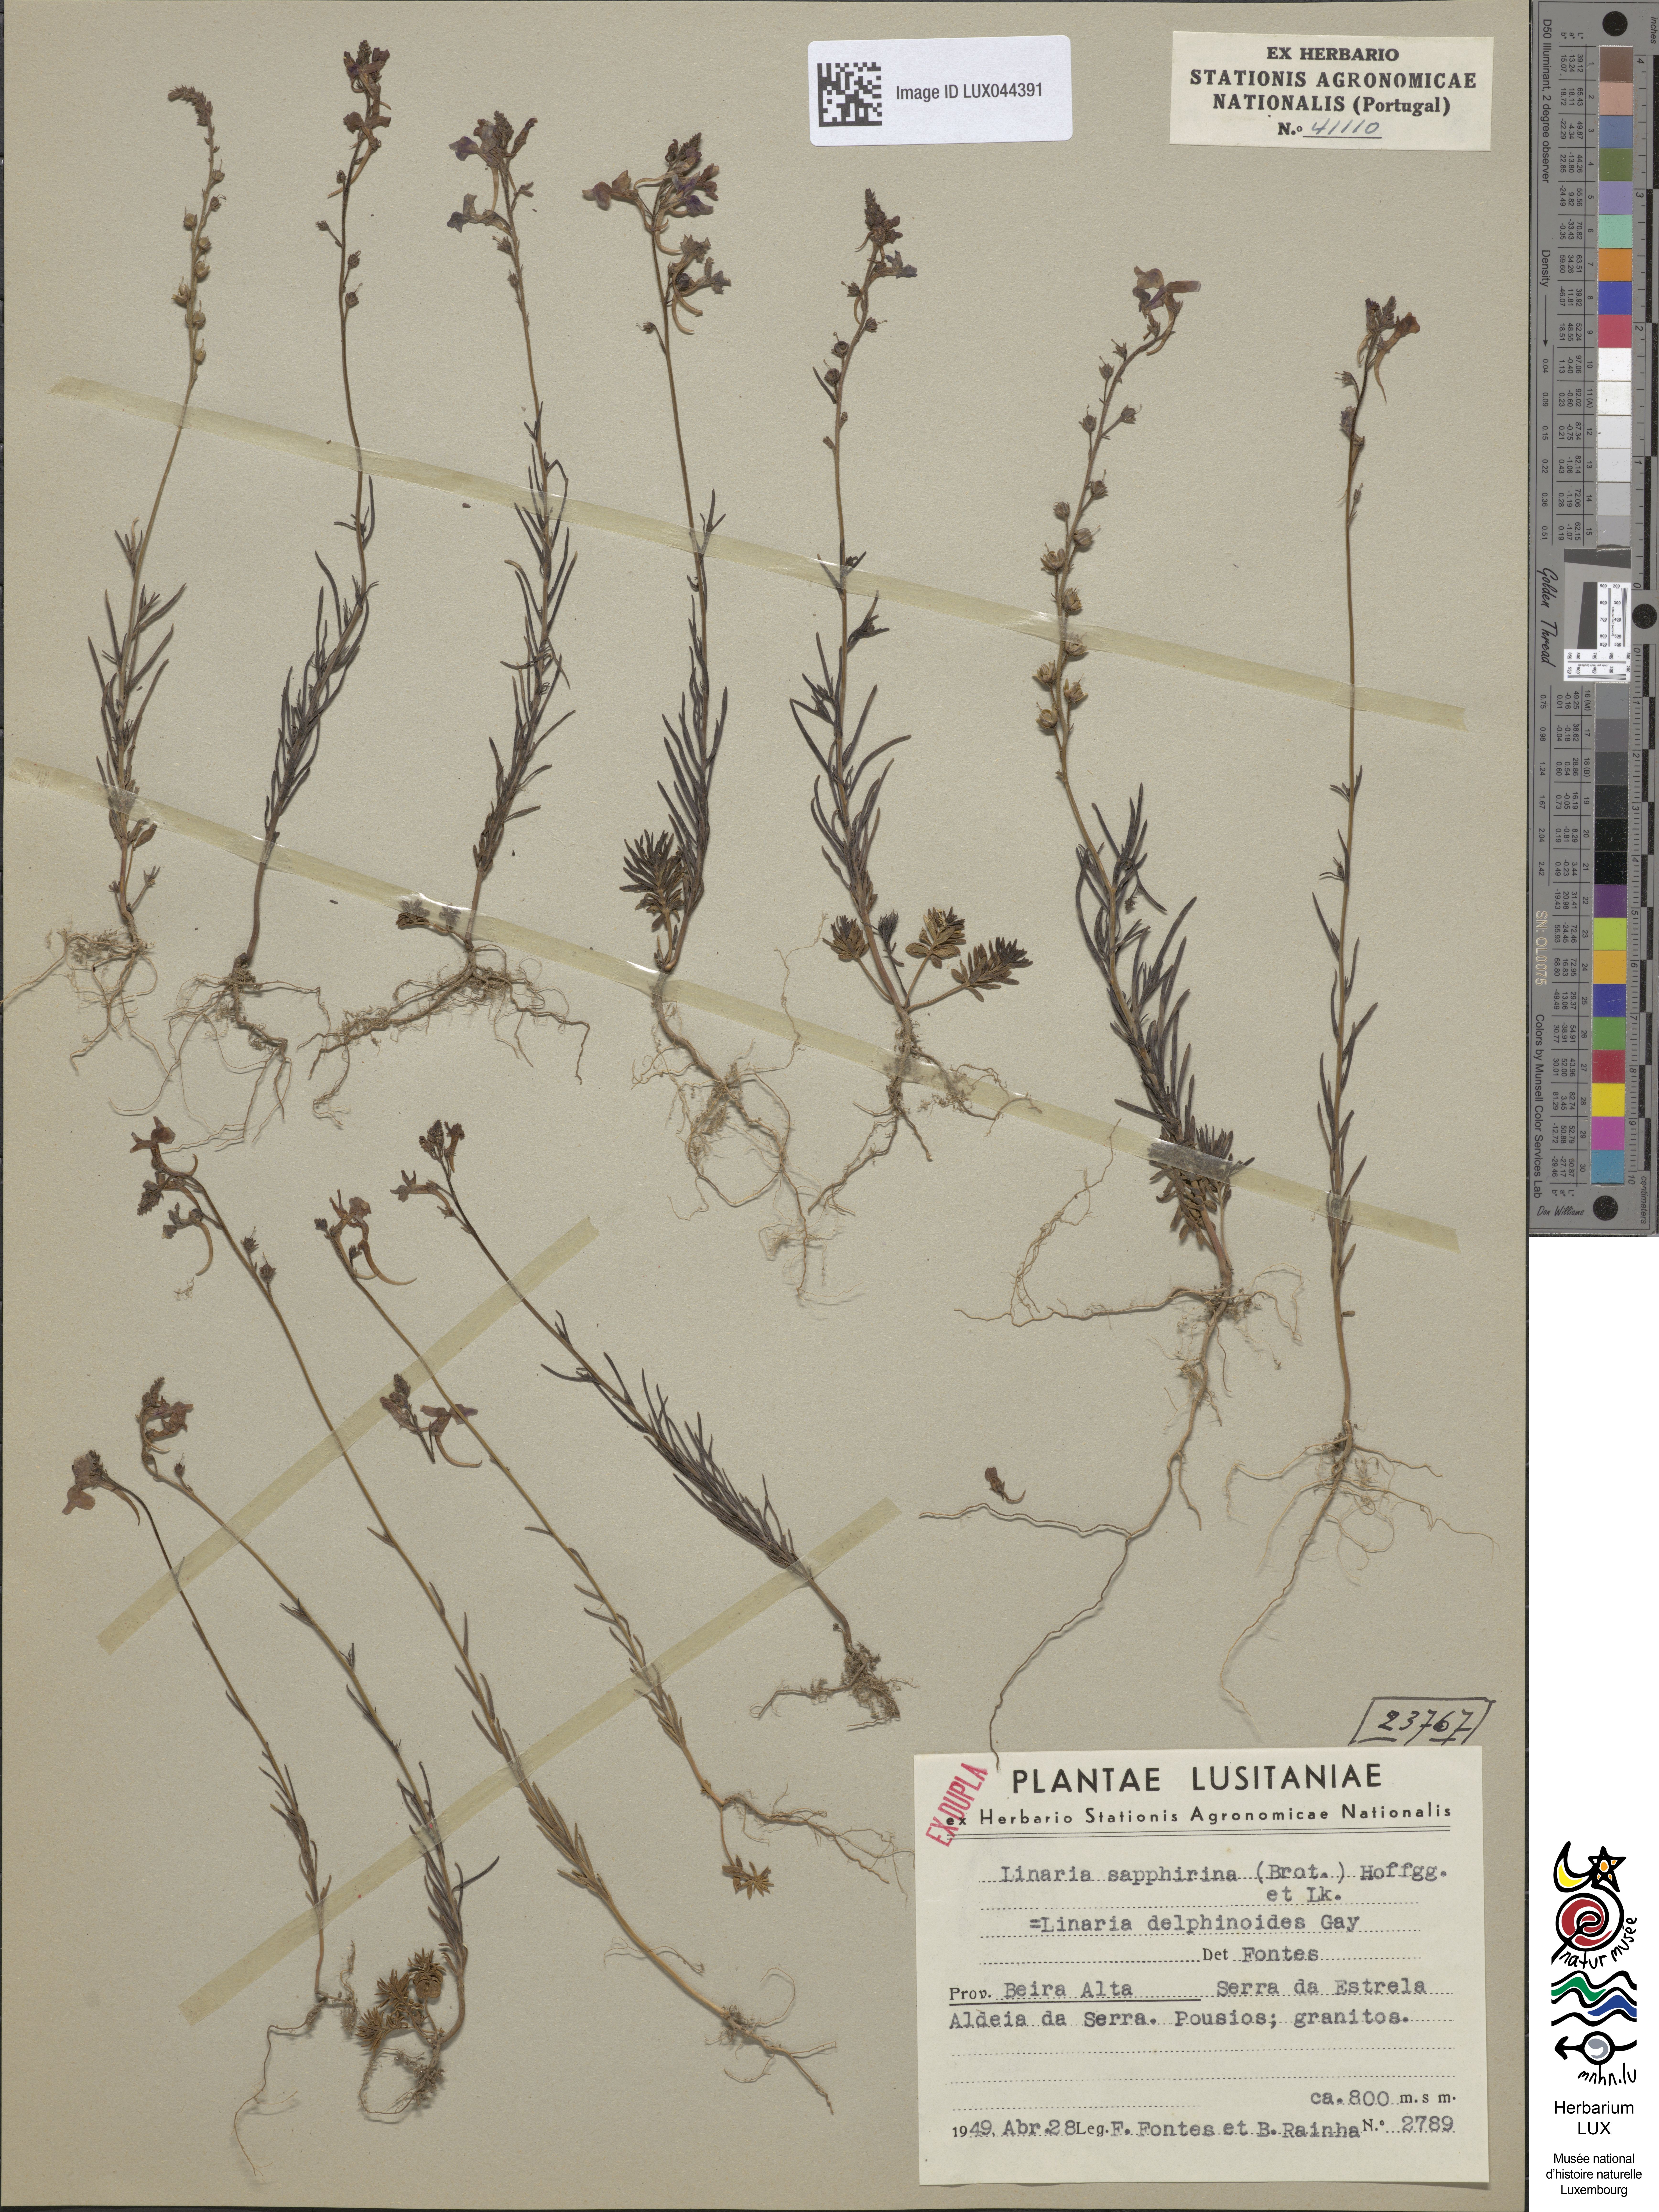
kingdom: Plantae
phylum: Tracheophyta
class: Magnoliopsida
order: Lamiales
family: Plantaginaceae
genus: Linaria
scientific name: Linaria elegans
